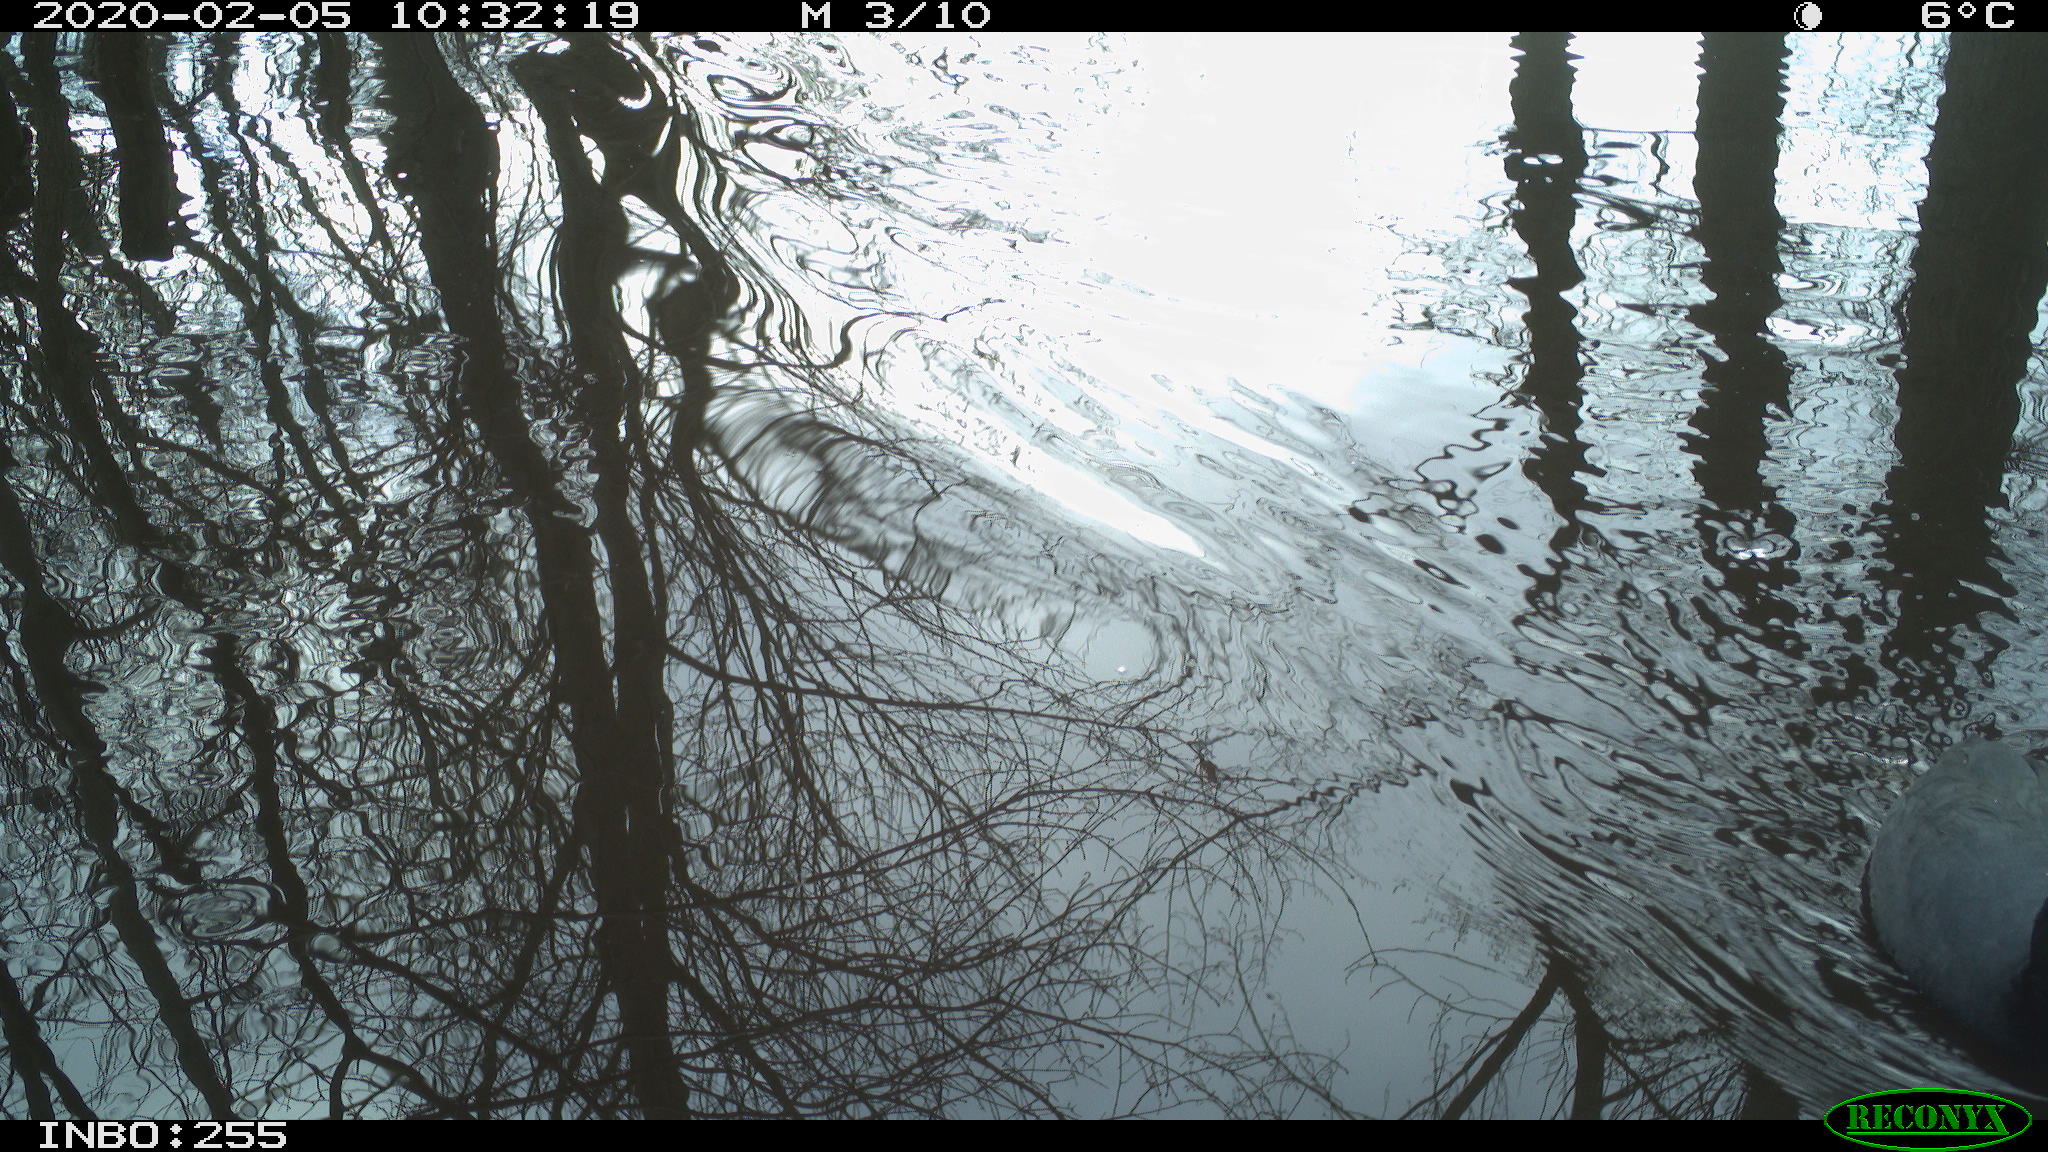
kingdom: Animalia
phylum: Chordata
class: Aves
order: Gruiformes
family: Rallidae
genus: Fulica
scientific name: Fulica atra
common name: Eurasian coot
